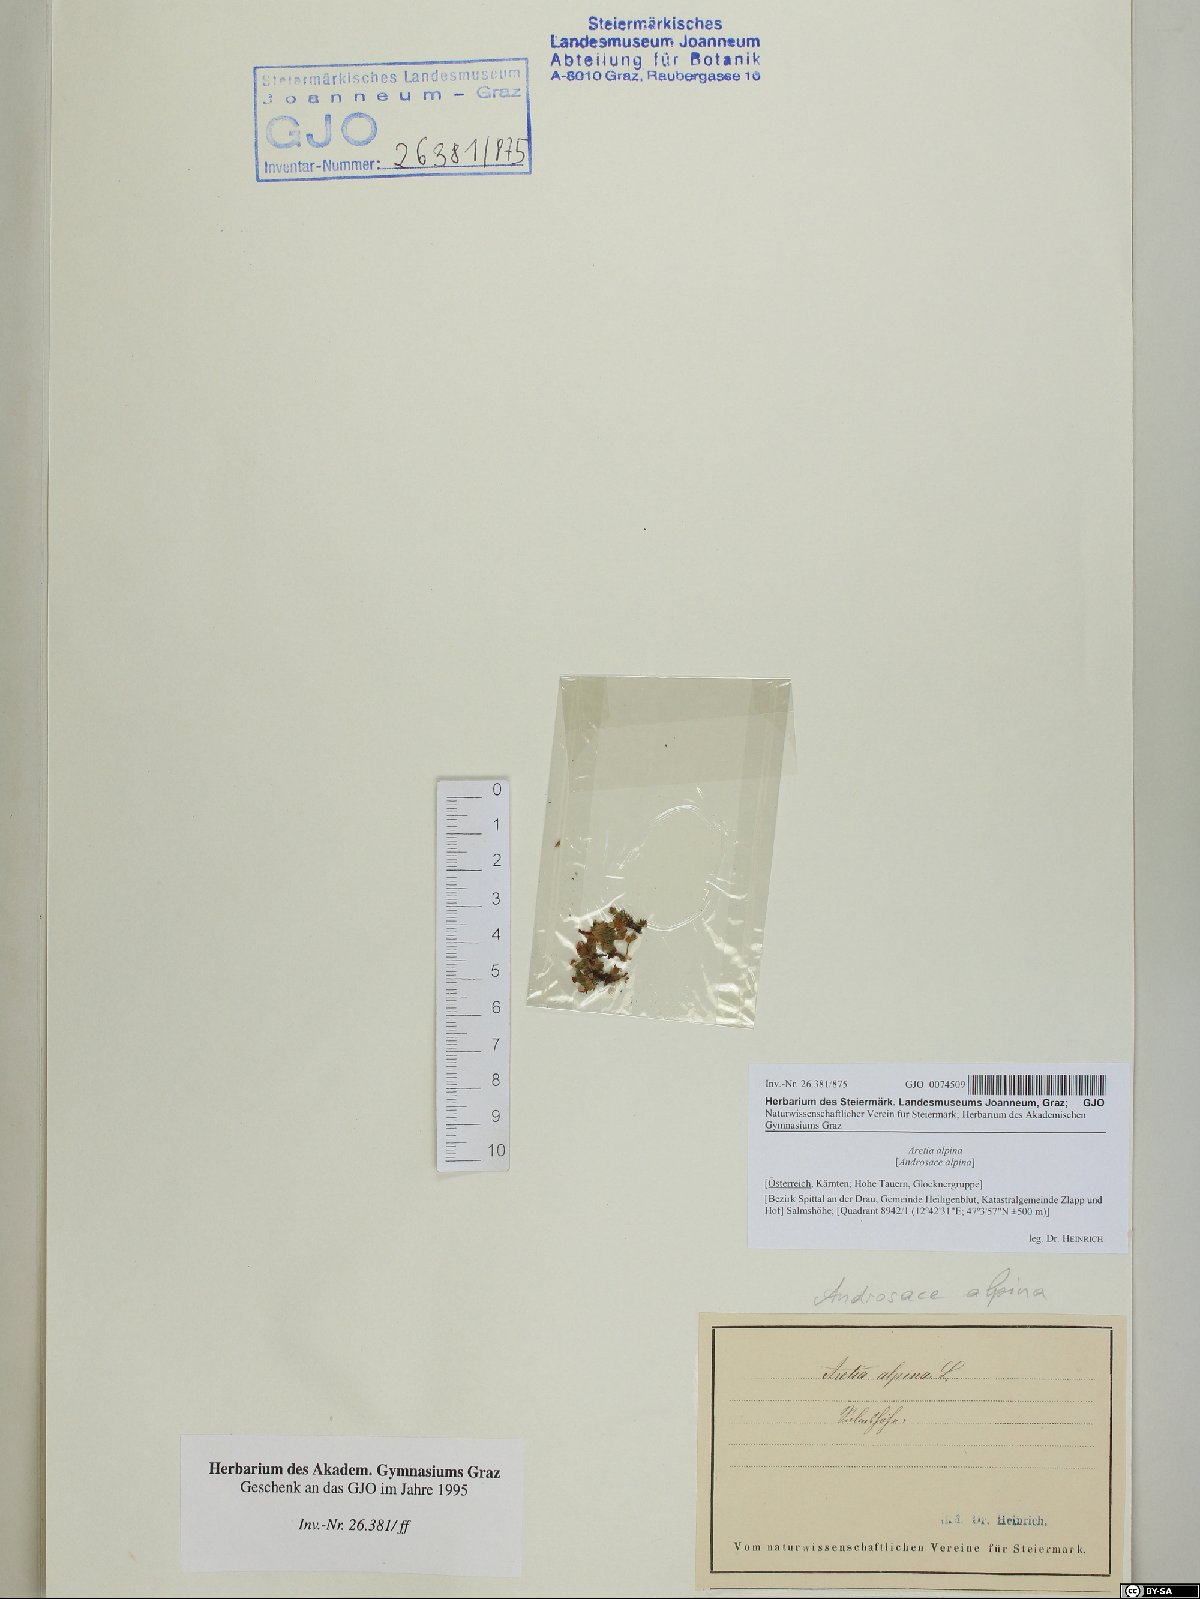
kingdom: Plantae
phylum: Tracheophyta
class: Magnoliopsida
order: Ericales
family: Primulaceae
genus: Androsace
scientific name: Androsace alpina
